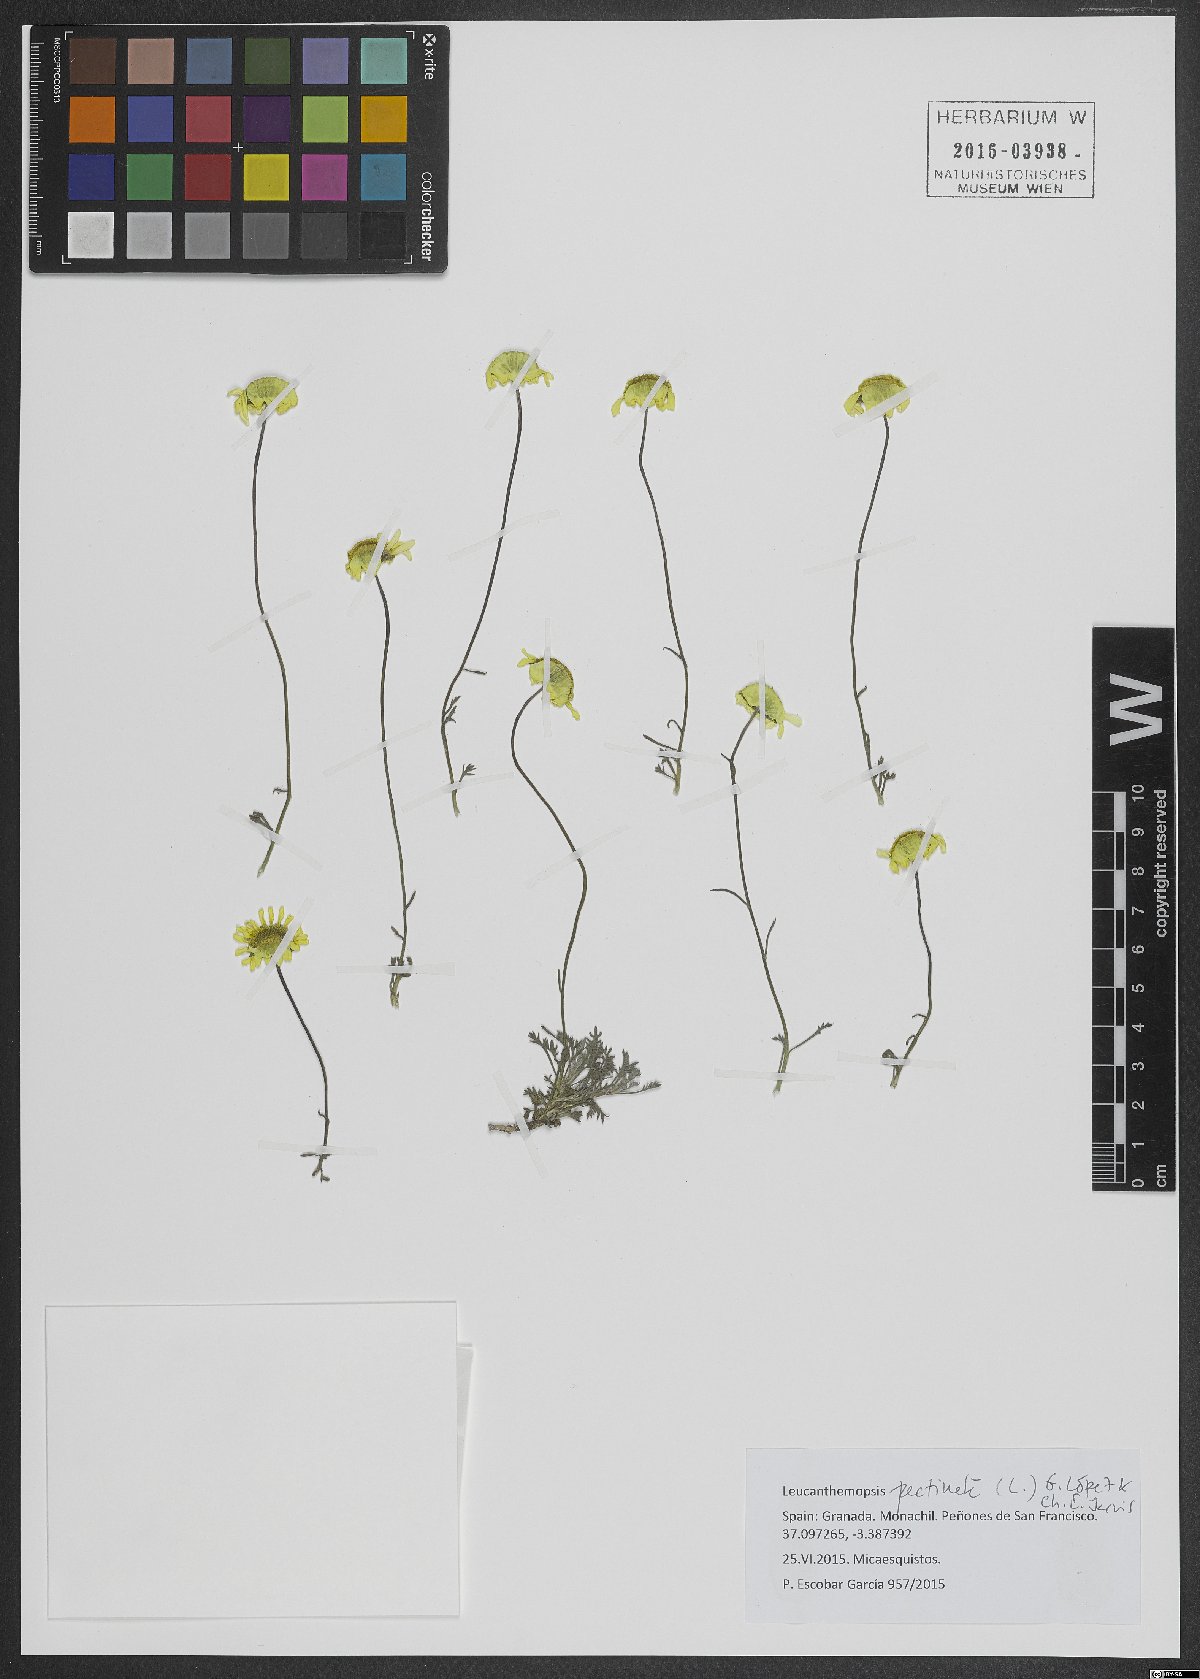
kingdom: Plantae
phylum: Tracheophyta
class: Magnoliopsida
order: Asterales
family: Asteraceae
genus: Leucanthemopsis
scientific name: Leucanthemopsis pectinata
